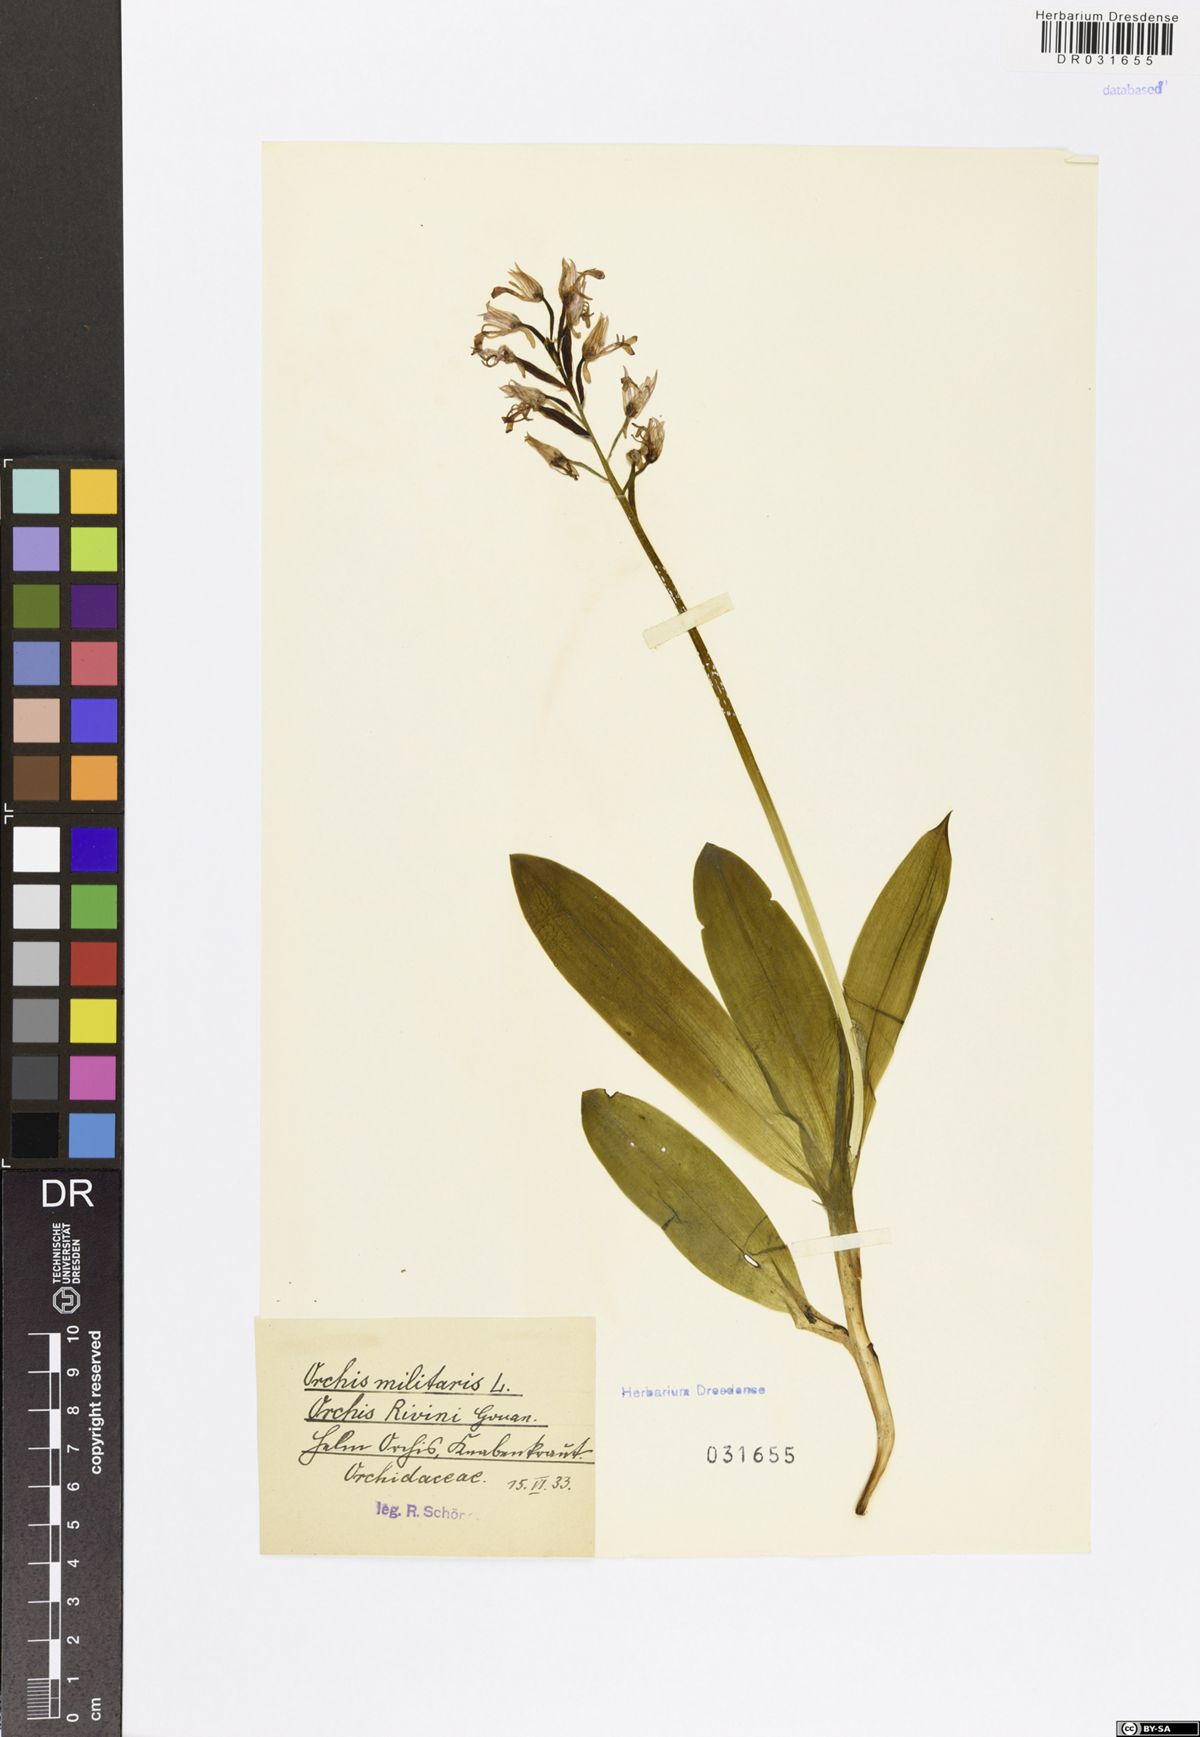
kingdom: Plantae
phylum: Tracheophyta
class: Liliopsida
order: Asparagales
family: Orchidaceae
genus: Orchis
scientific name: Orchis militaris
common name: Military orchid
